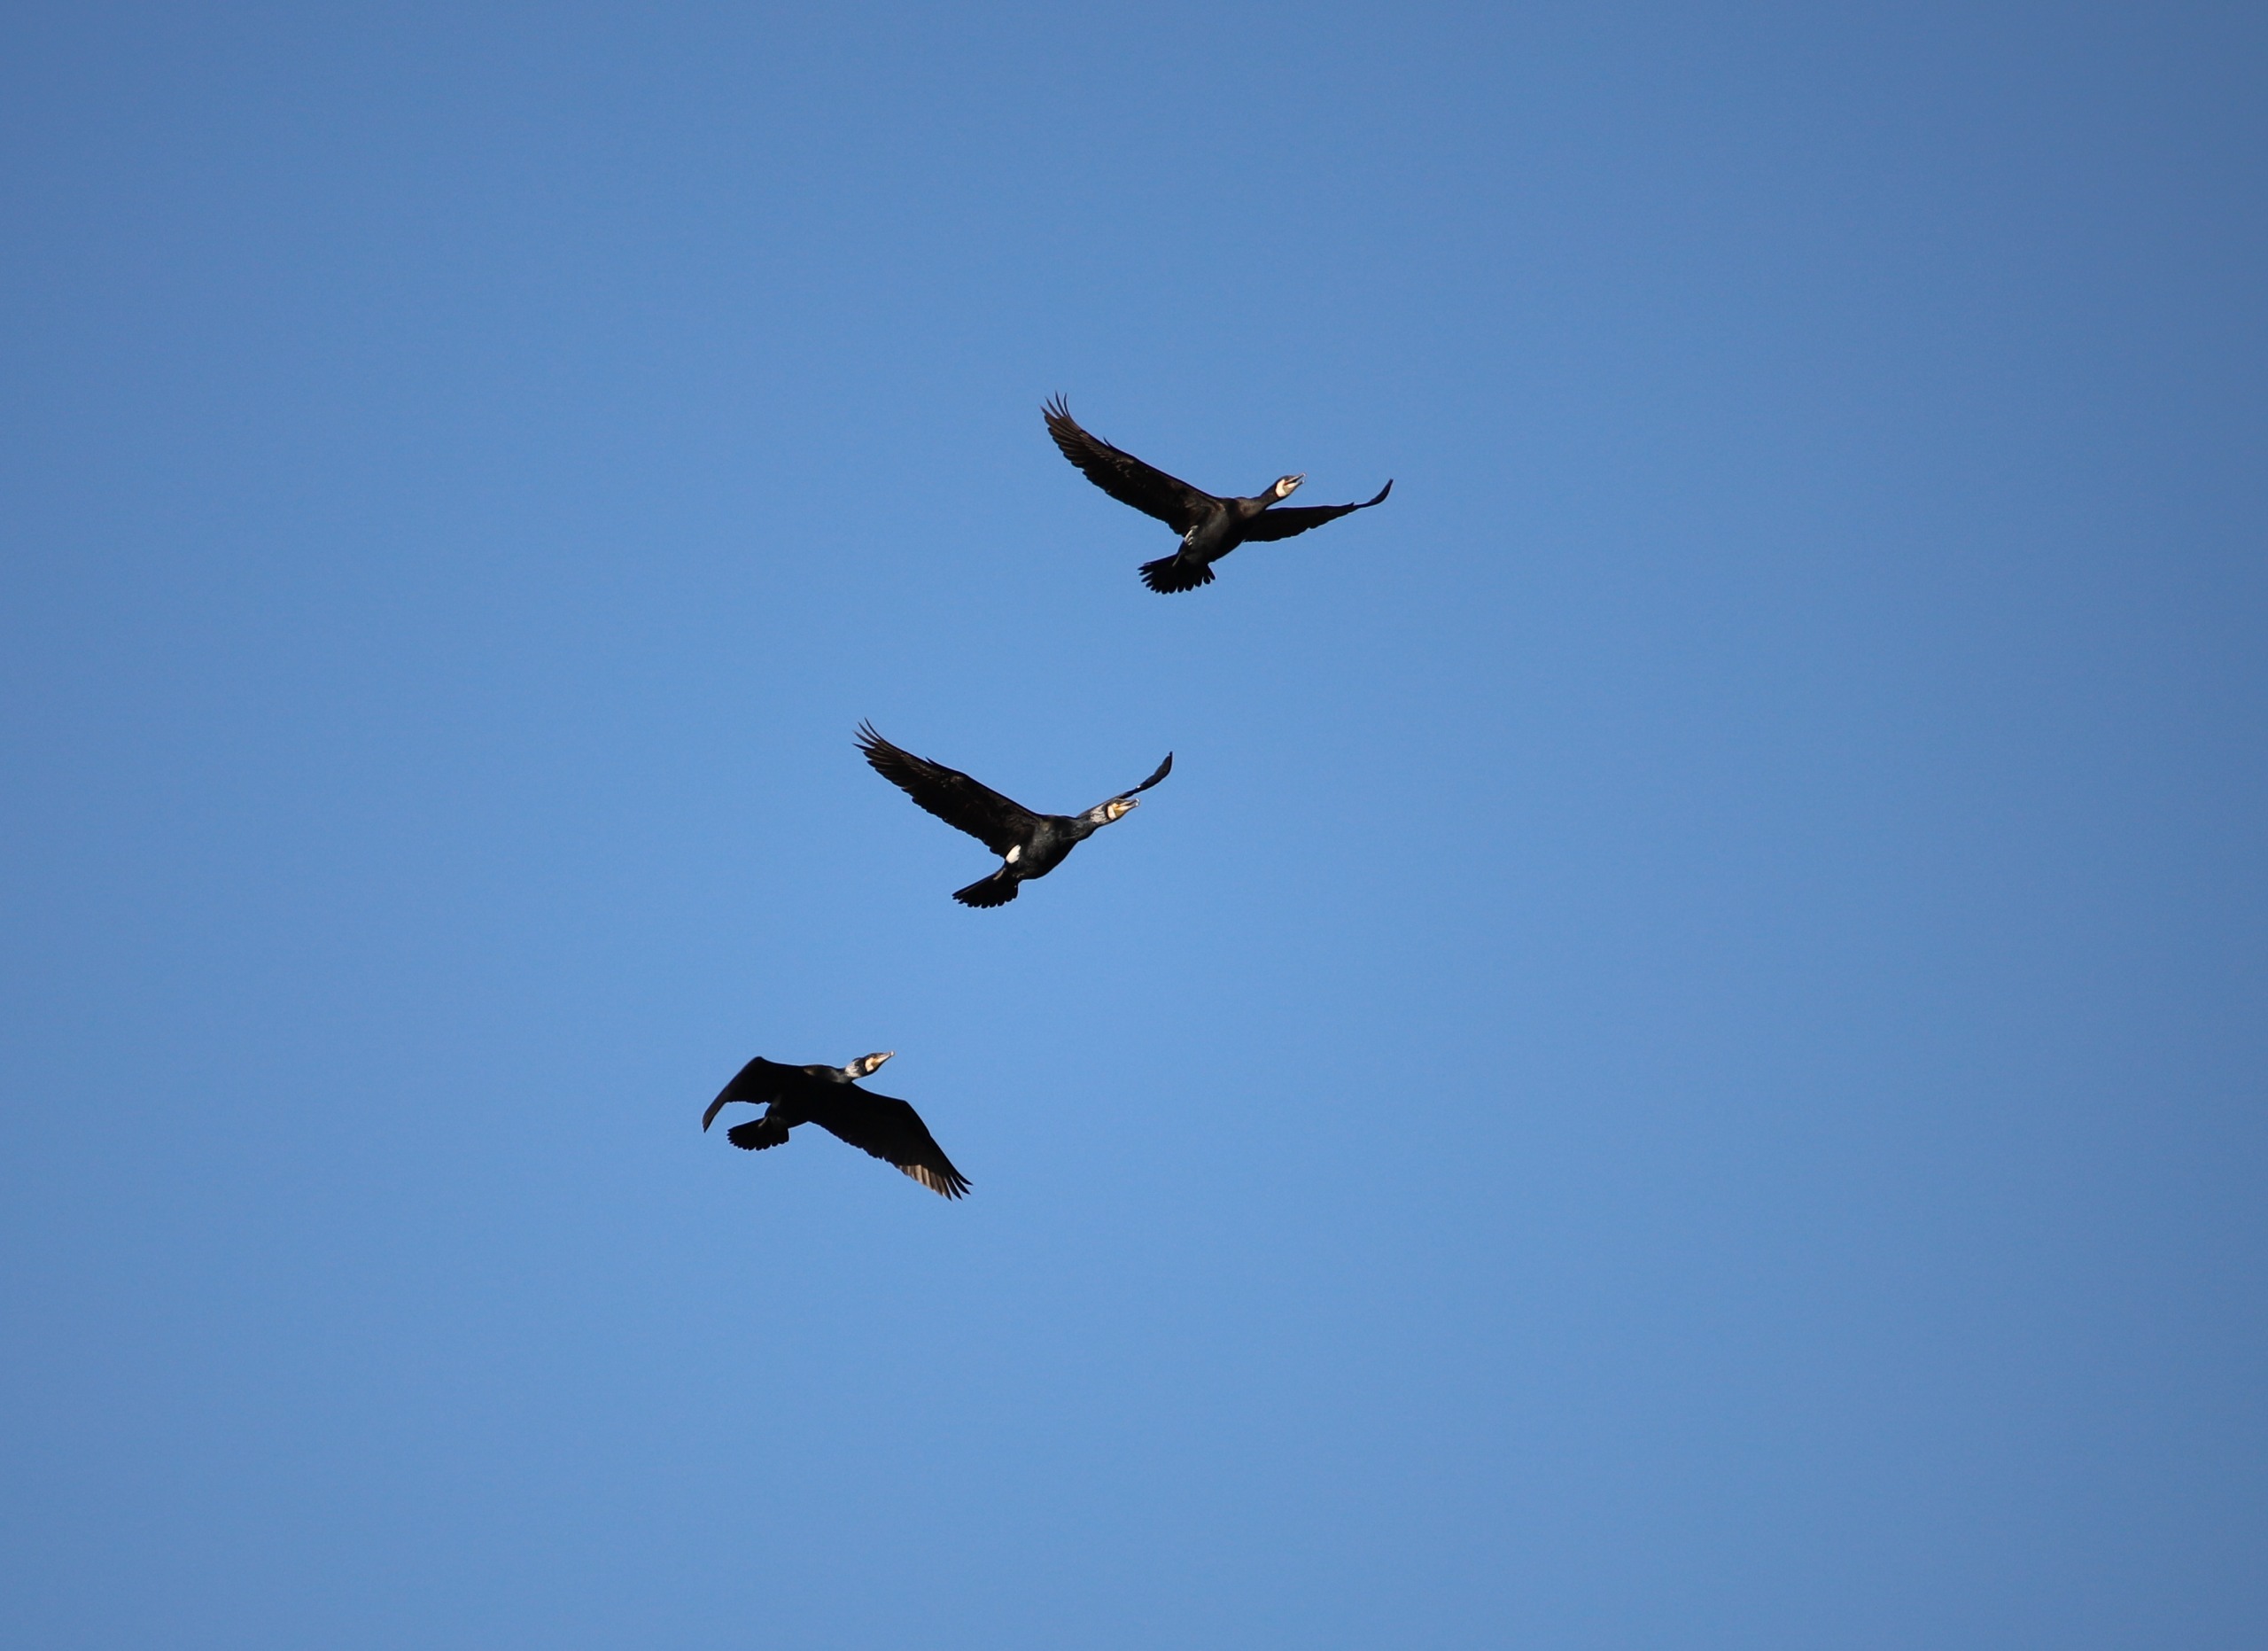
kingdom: Animalia
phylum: Chordata
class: Aves
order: Suliformes
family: Phalacrocoracidae
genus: Phalacrocorax
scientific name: Phalacrocorax carbo
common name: Skarv
